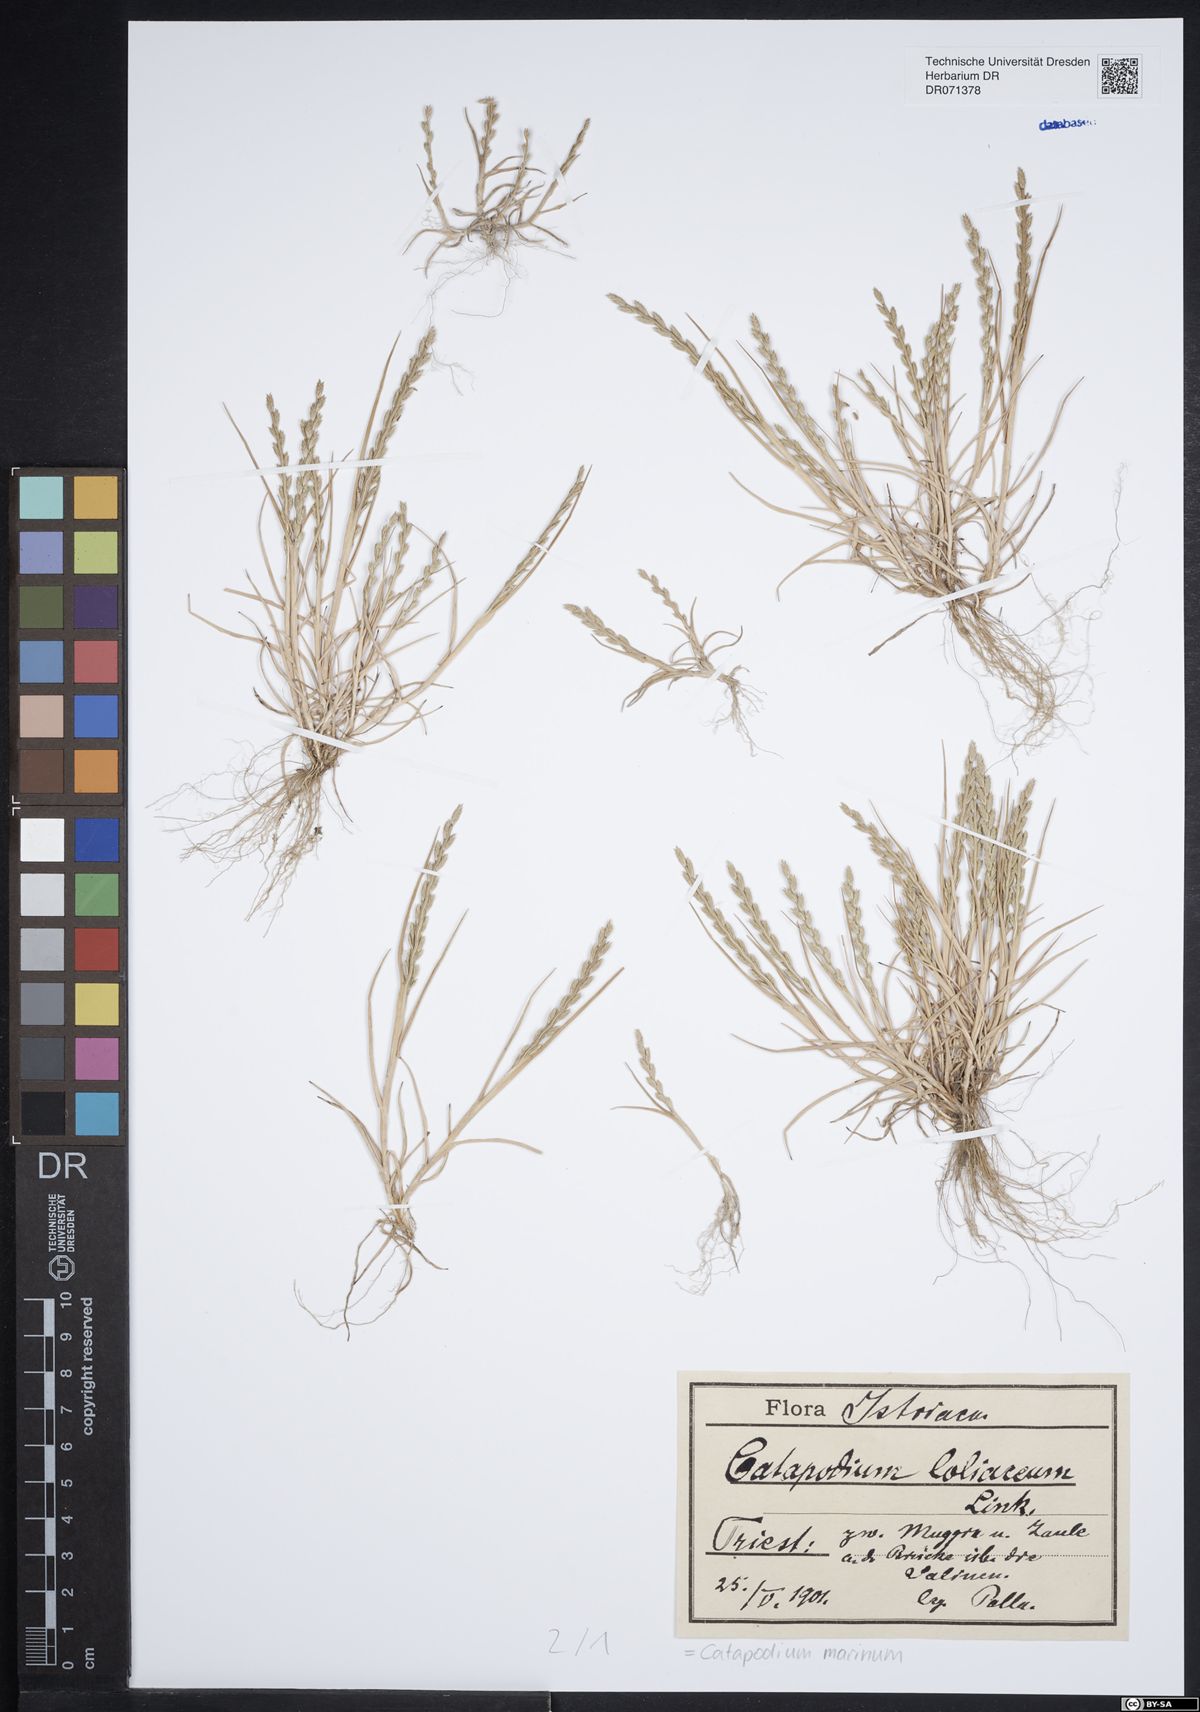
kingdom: Plantae
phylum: Tracheophyta
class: Liliopsida
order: Poales
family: Poaceae
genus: Catapodium
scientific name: Catapodium marinum
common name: Sea fern-grass
